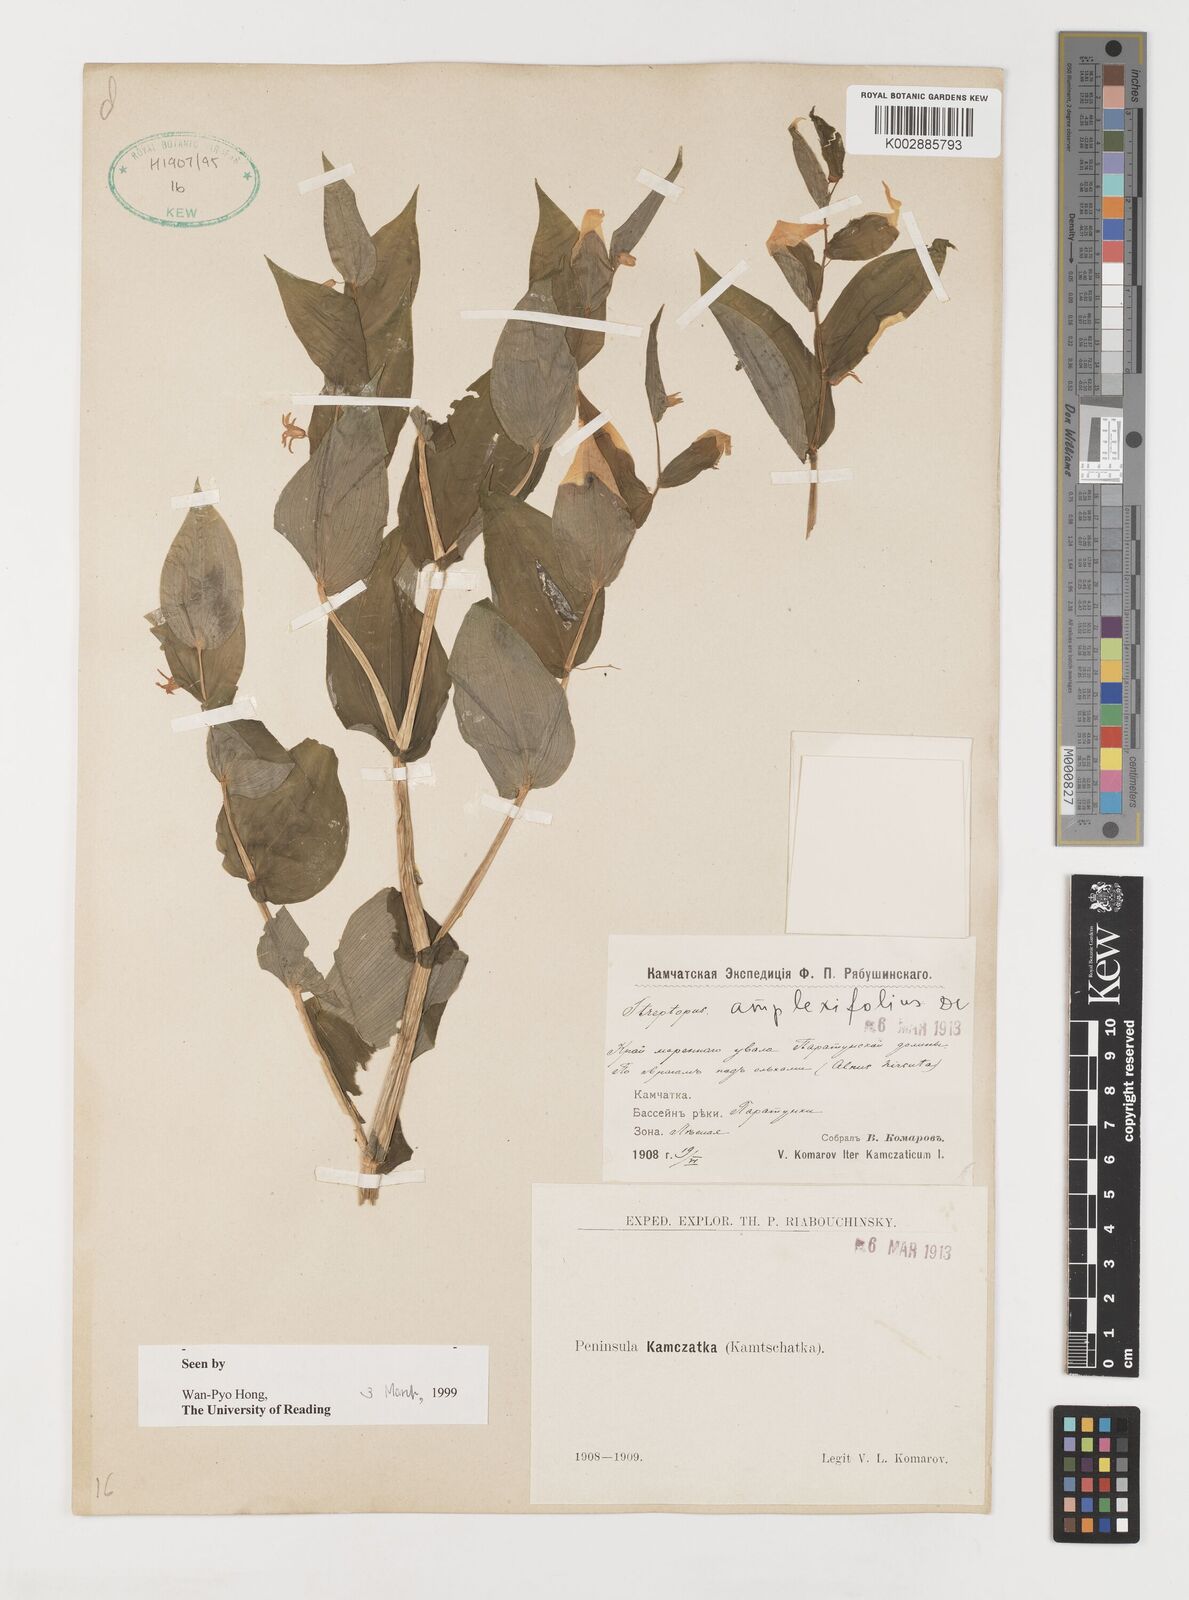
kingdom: Plantae
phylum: Tracheophyta
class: Liliopsida
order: Liliales
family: Liliaceae
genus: Streptopus
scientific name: Streptopus amplexifolius
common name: Clasp twisted stalk
